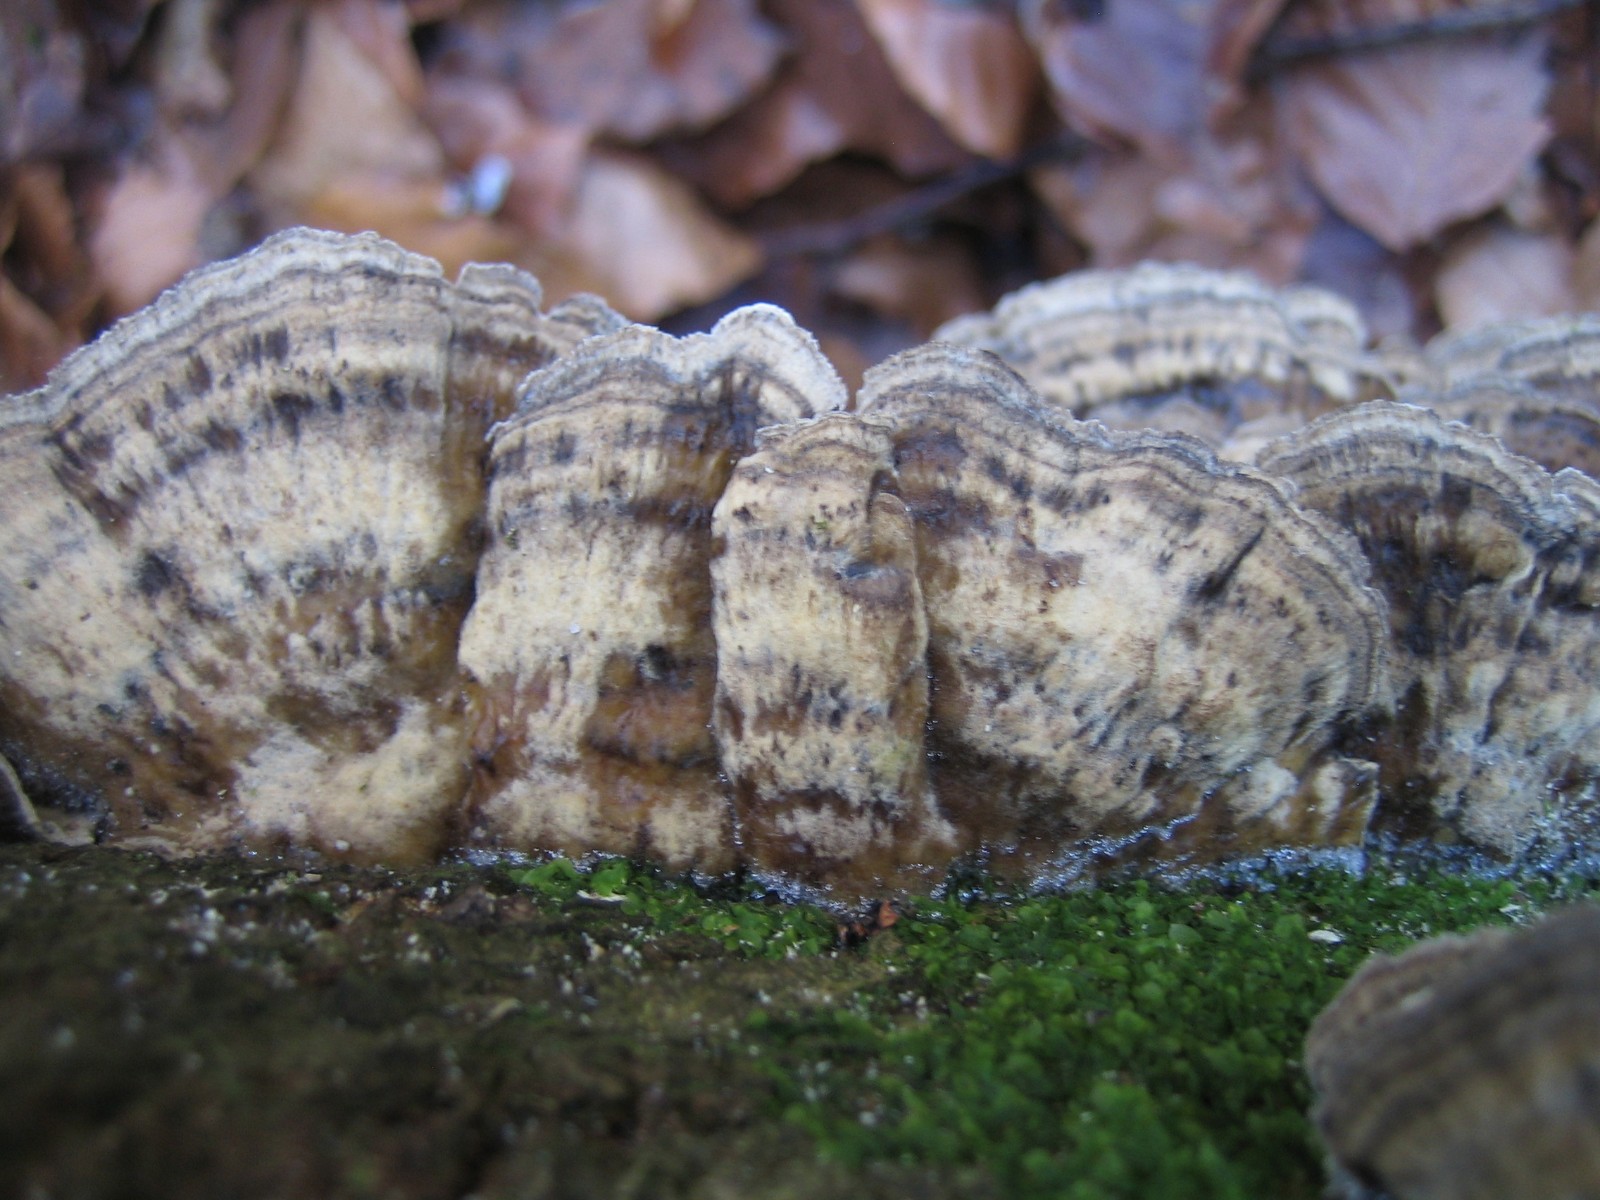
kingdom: Fungi
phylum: Basidiomycota
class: Agaricomycetes
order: Polyporales
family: Phanerochaetaceae
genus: Bjerkandera
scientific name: Bjerkandera adusta
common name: sveden sodporesvamp
